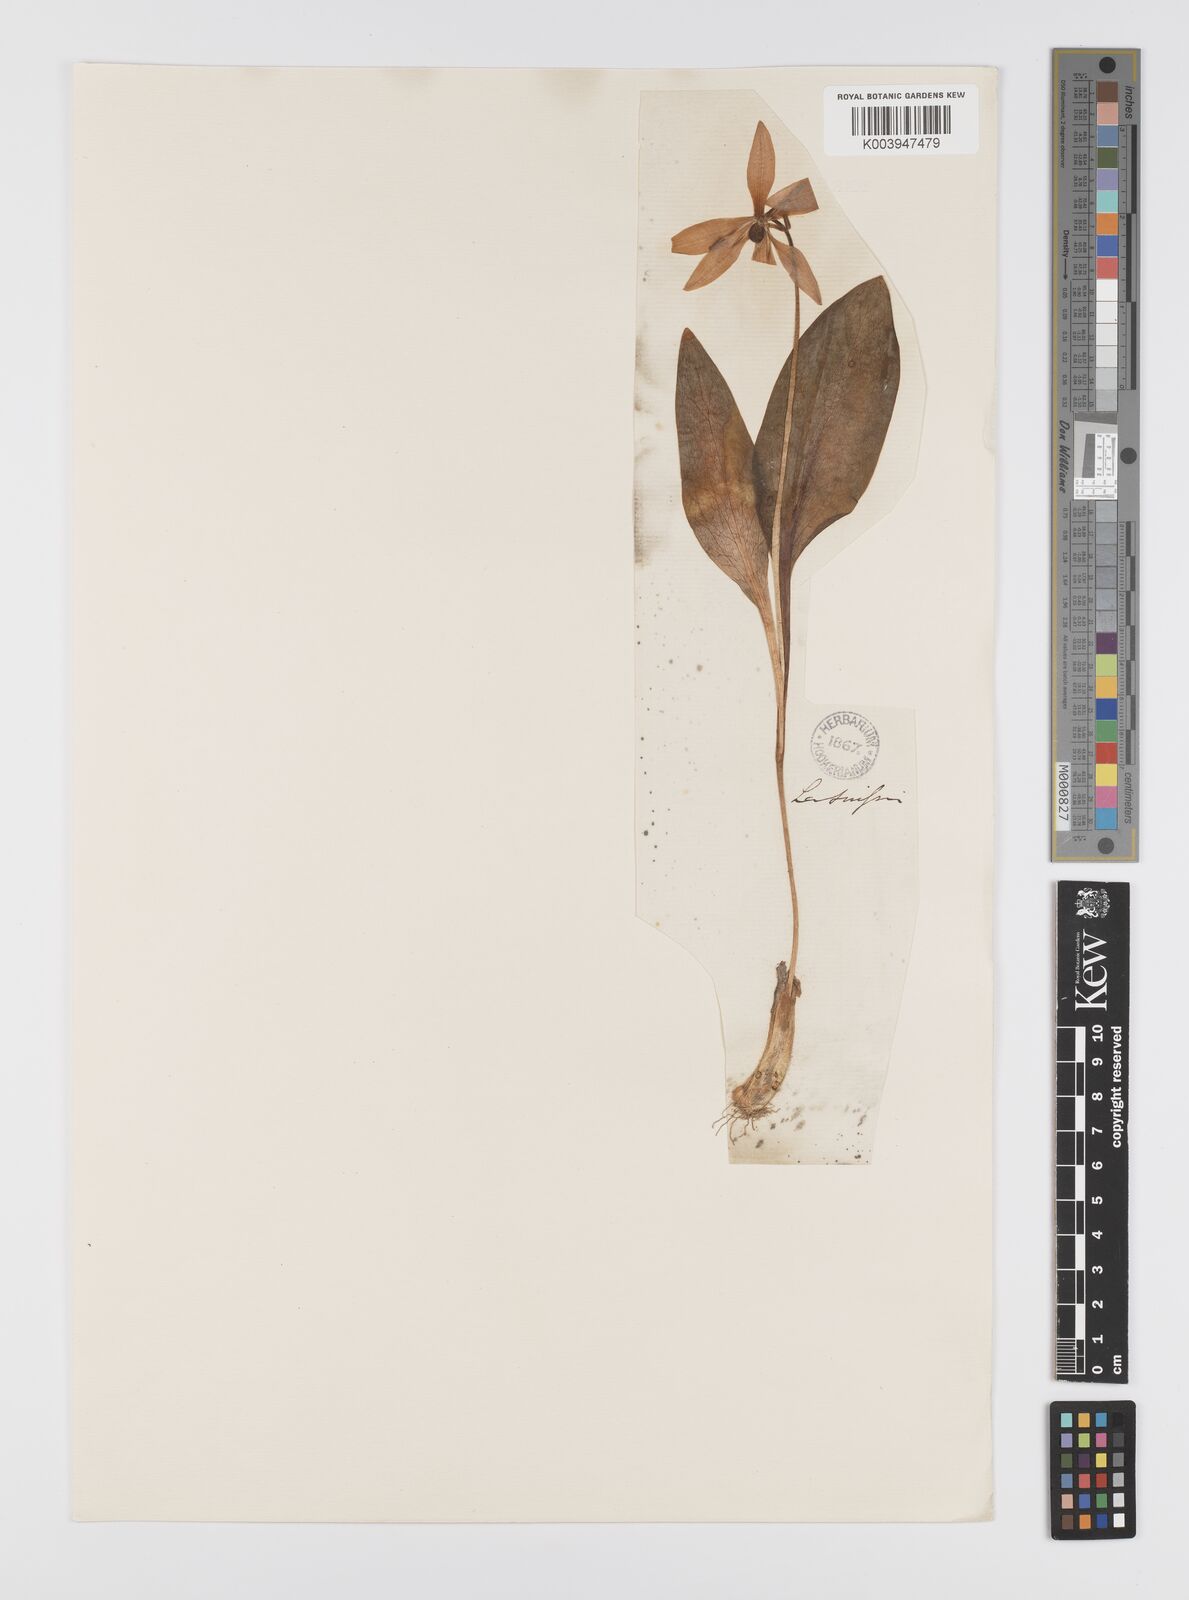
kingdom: Plantae
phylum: Tracheophyta
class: Liliopsida
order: Liliales
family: Liliaceae
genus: Erythronium
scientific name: Erythronium dens-canis
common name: Dog's-tooth-violet
